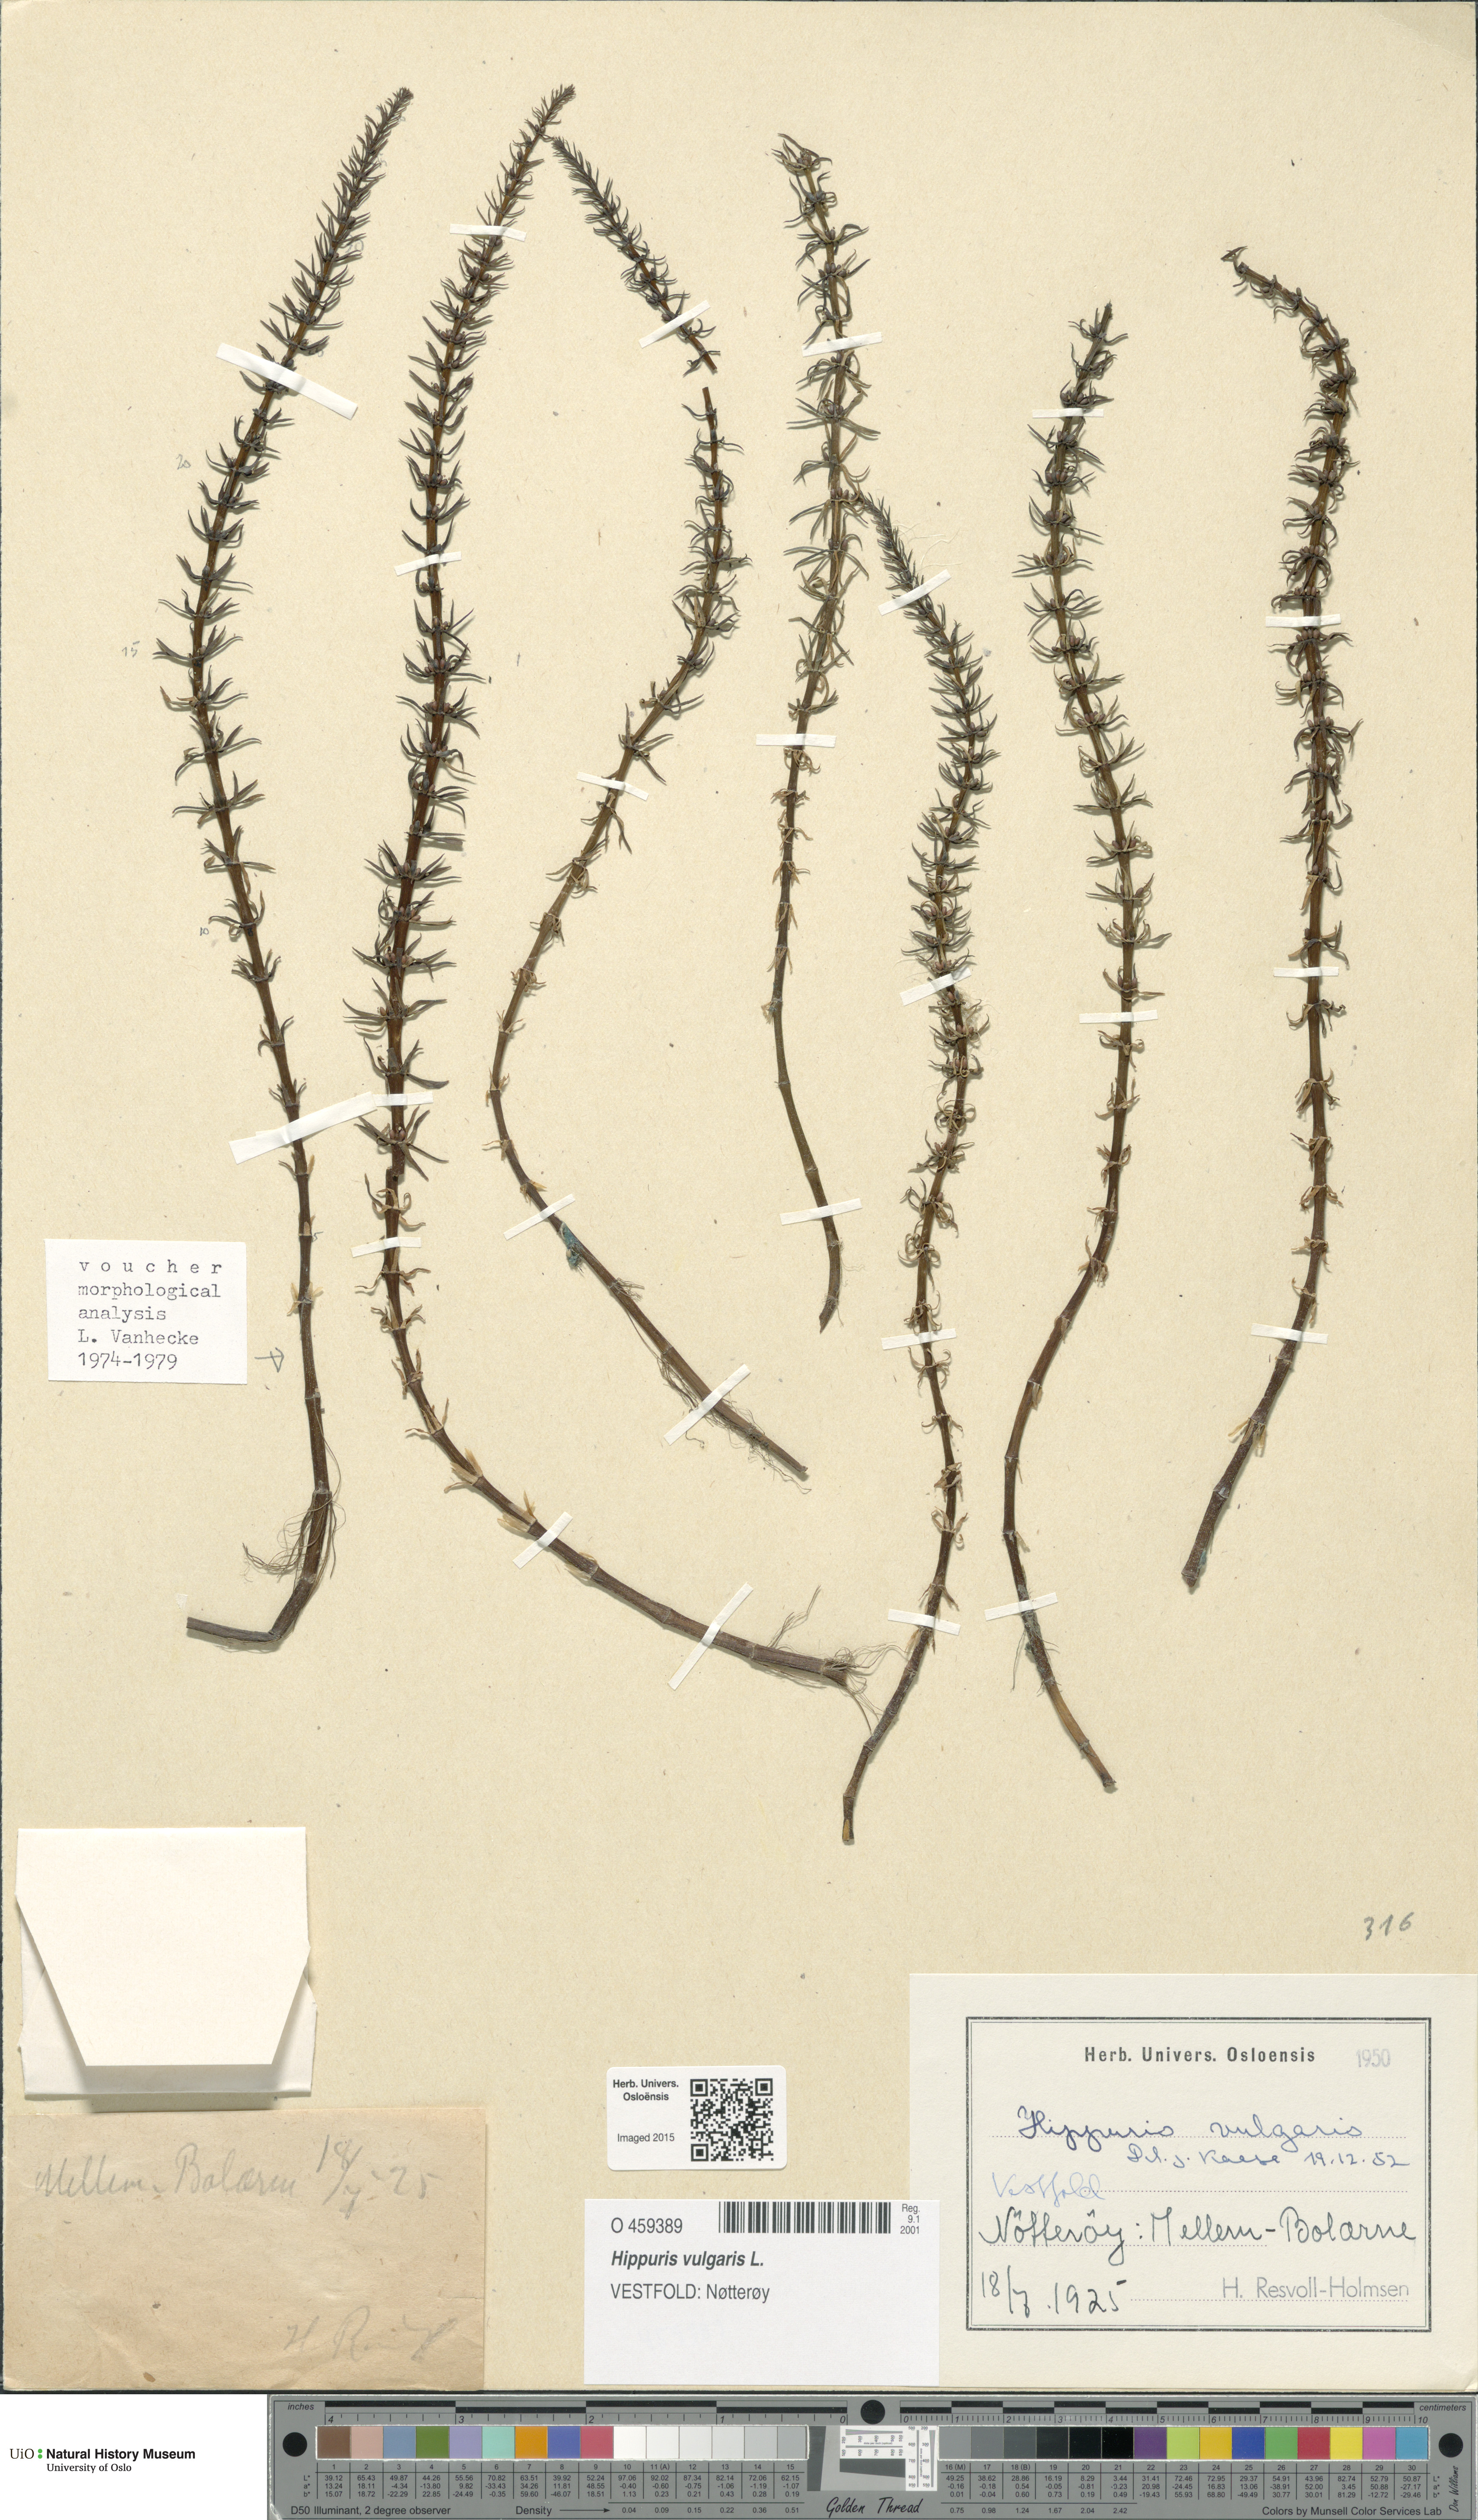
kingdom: Plantae
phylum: Tracheophyta
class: Magnoliopsida
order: Lamiales
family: Plantaginaceae
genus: Hippuris
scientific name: Hippuris vulgaris
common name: Mare's-tail
